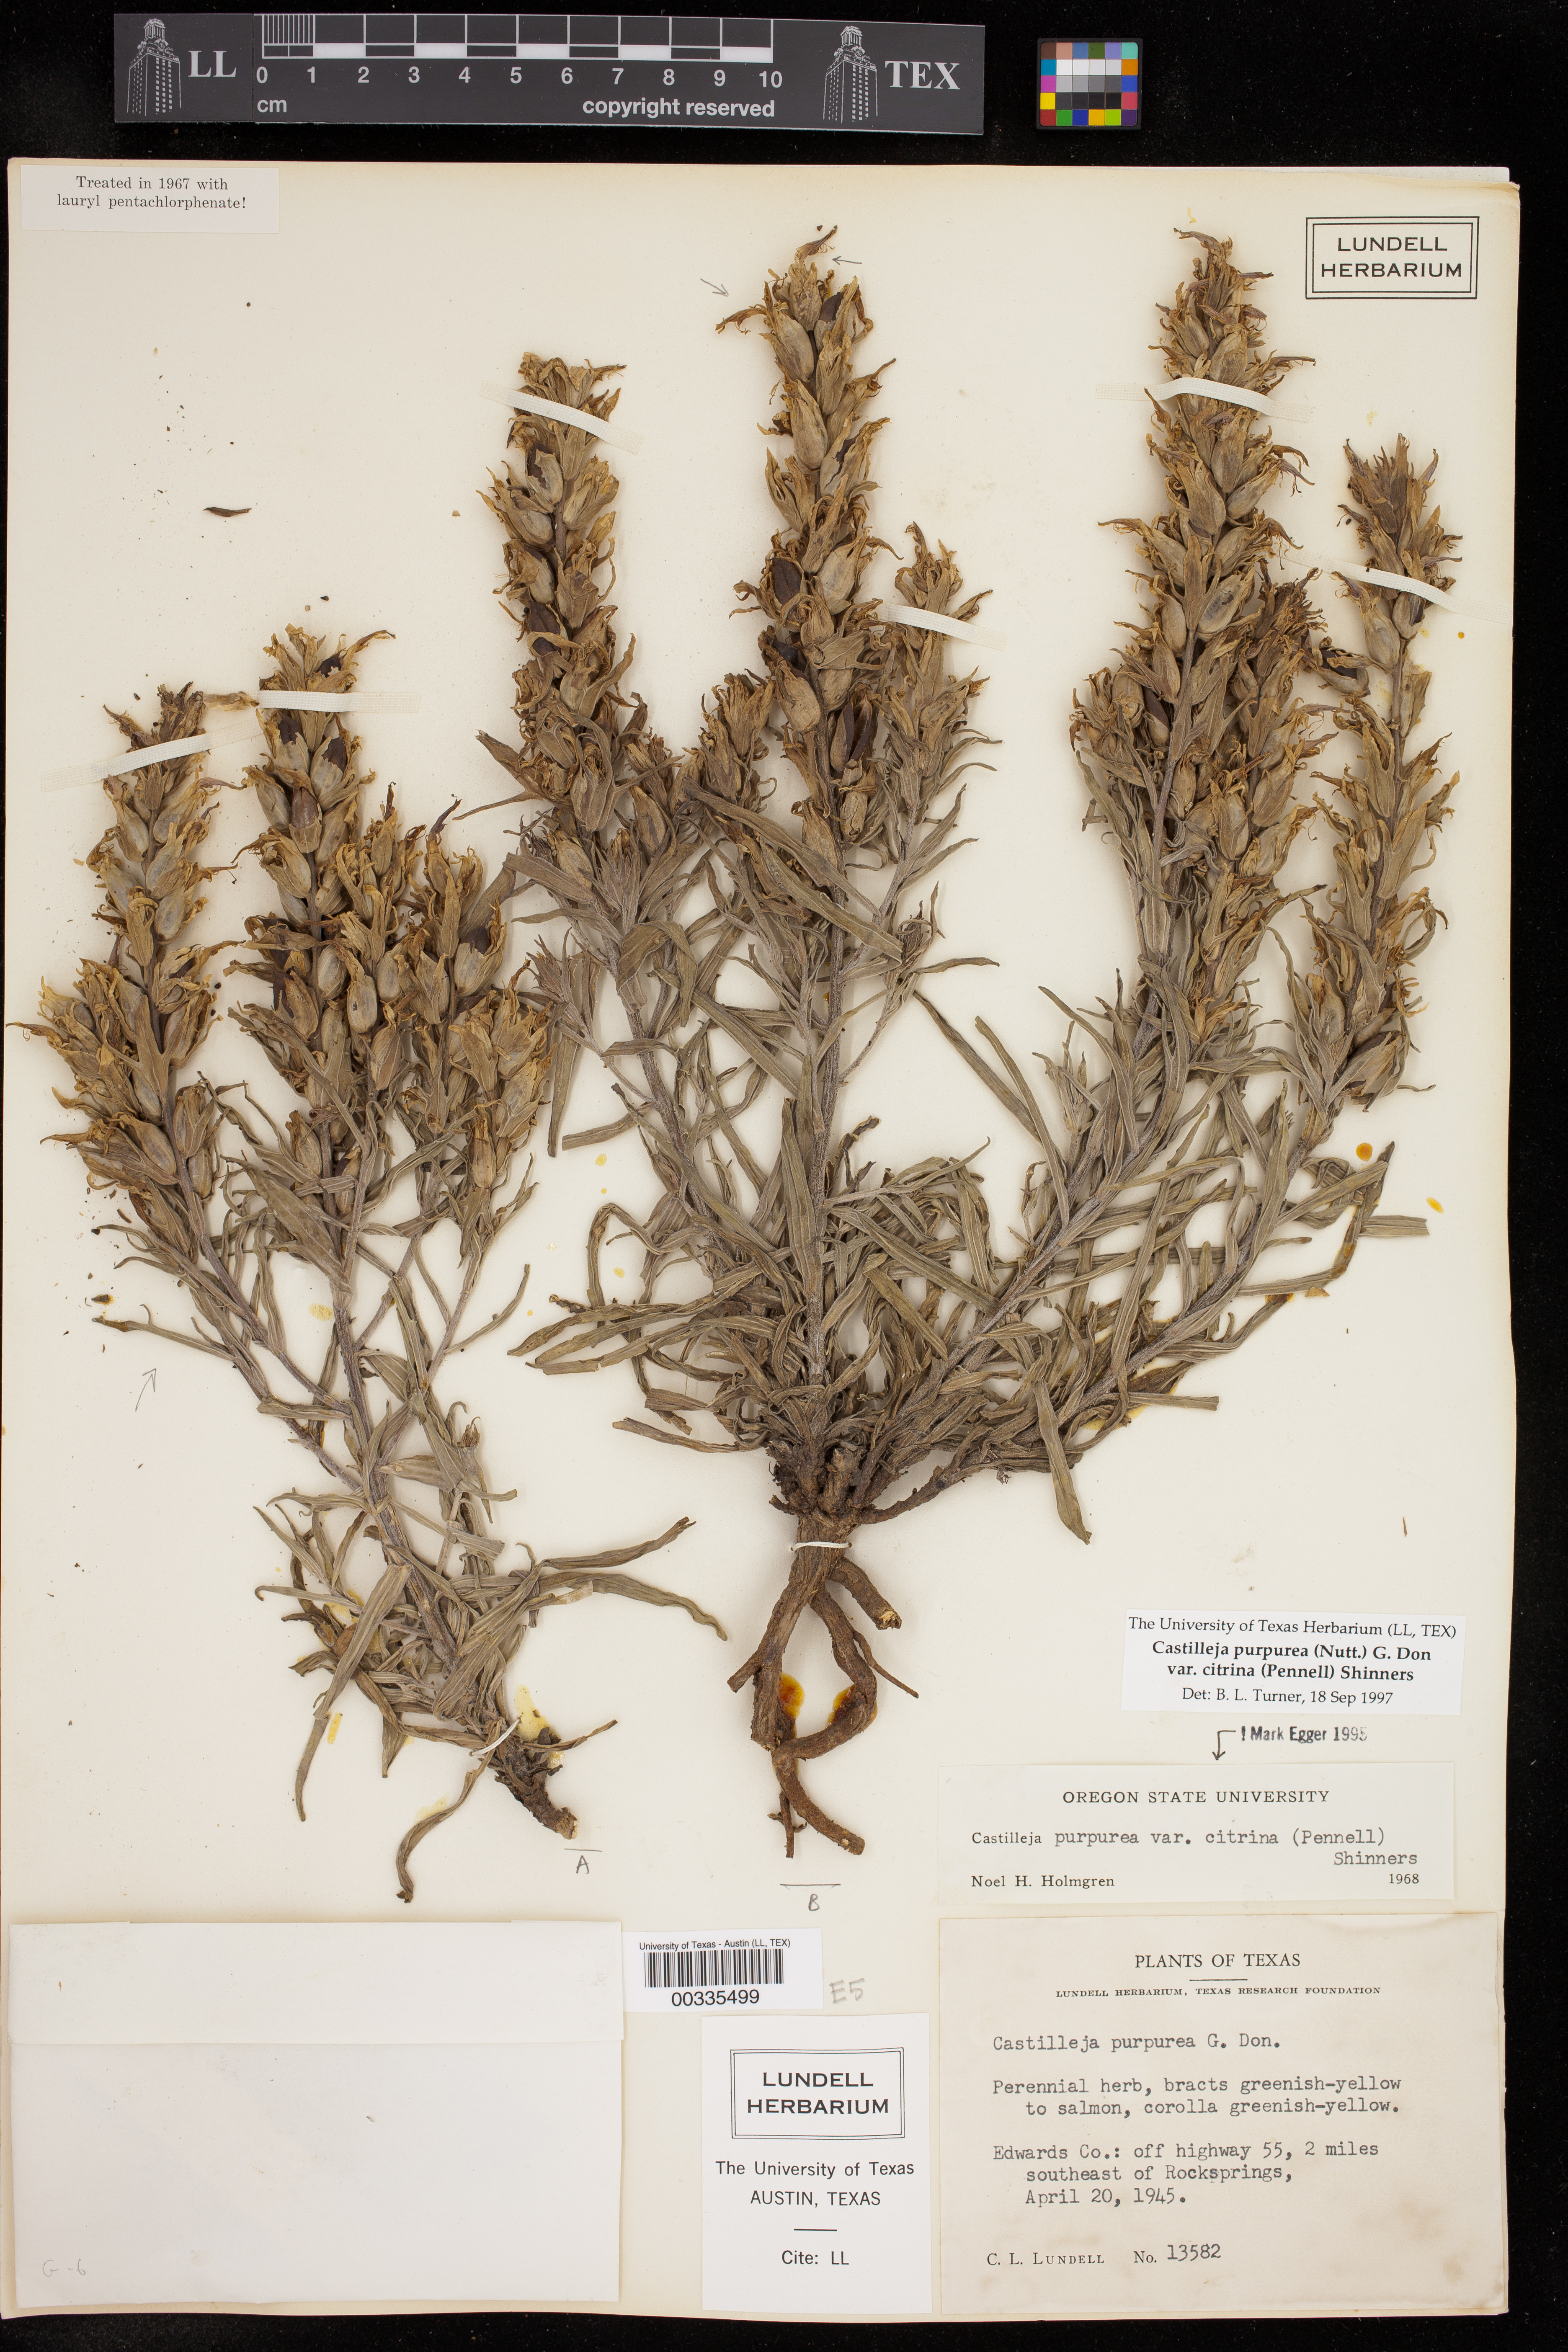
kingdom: Plantae
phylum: Tracheophyta
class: Magnoliopsida
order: Lamiales
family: Orobanchaceae
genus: Castilleja
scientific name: Castilleja citrina
